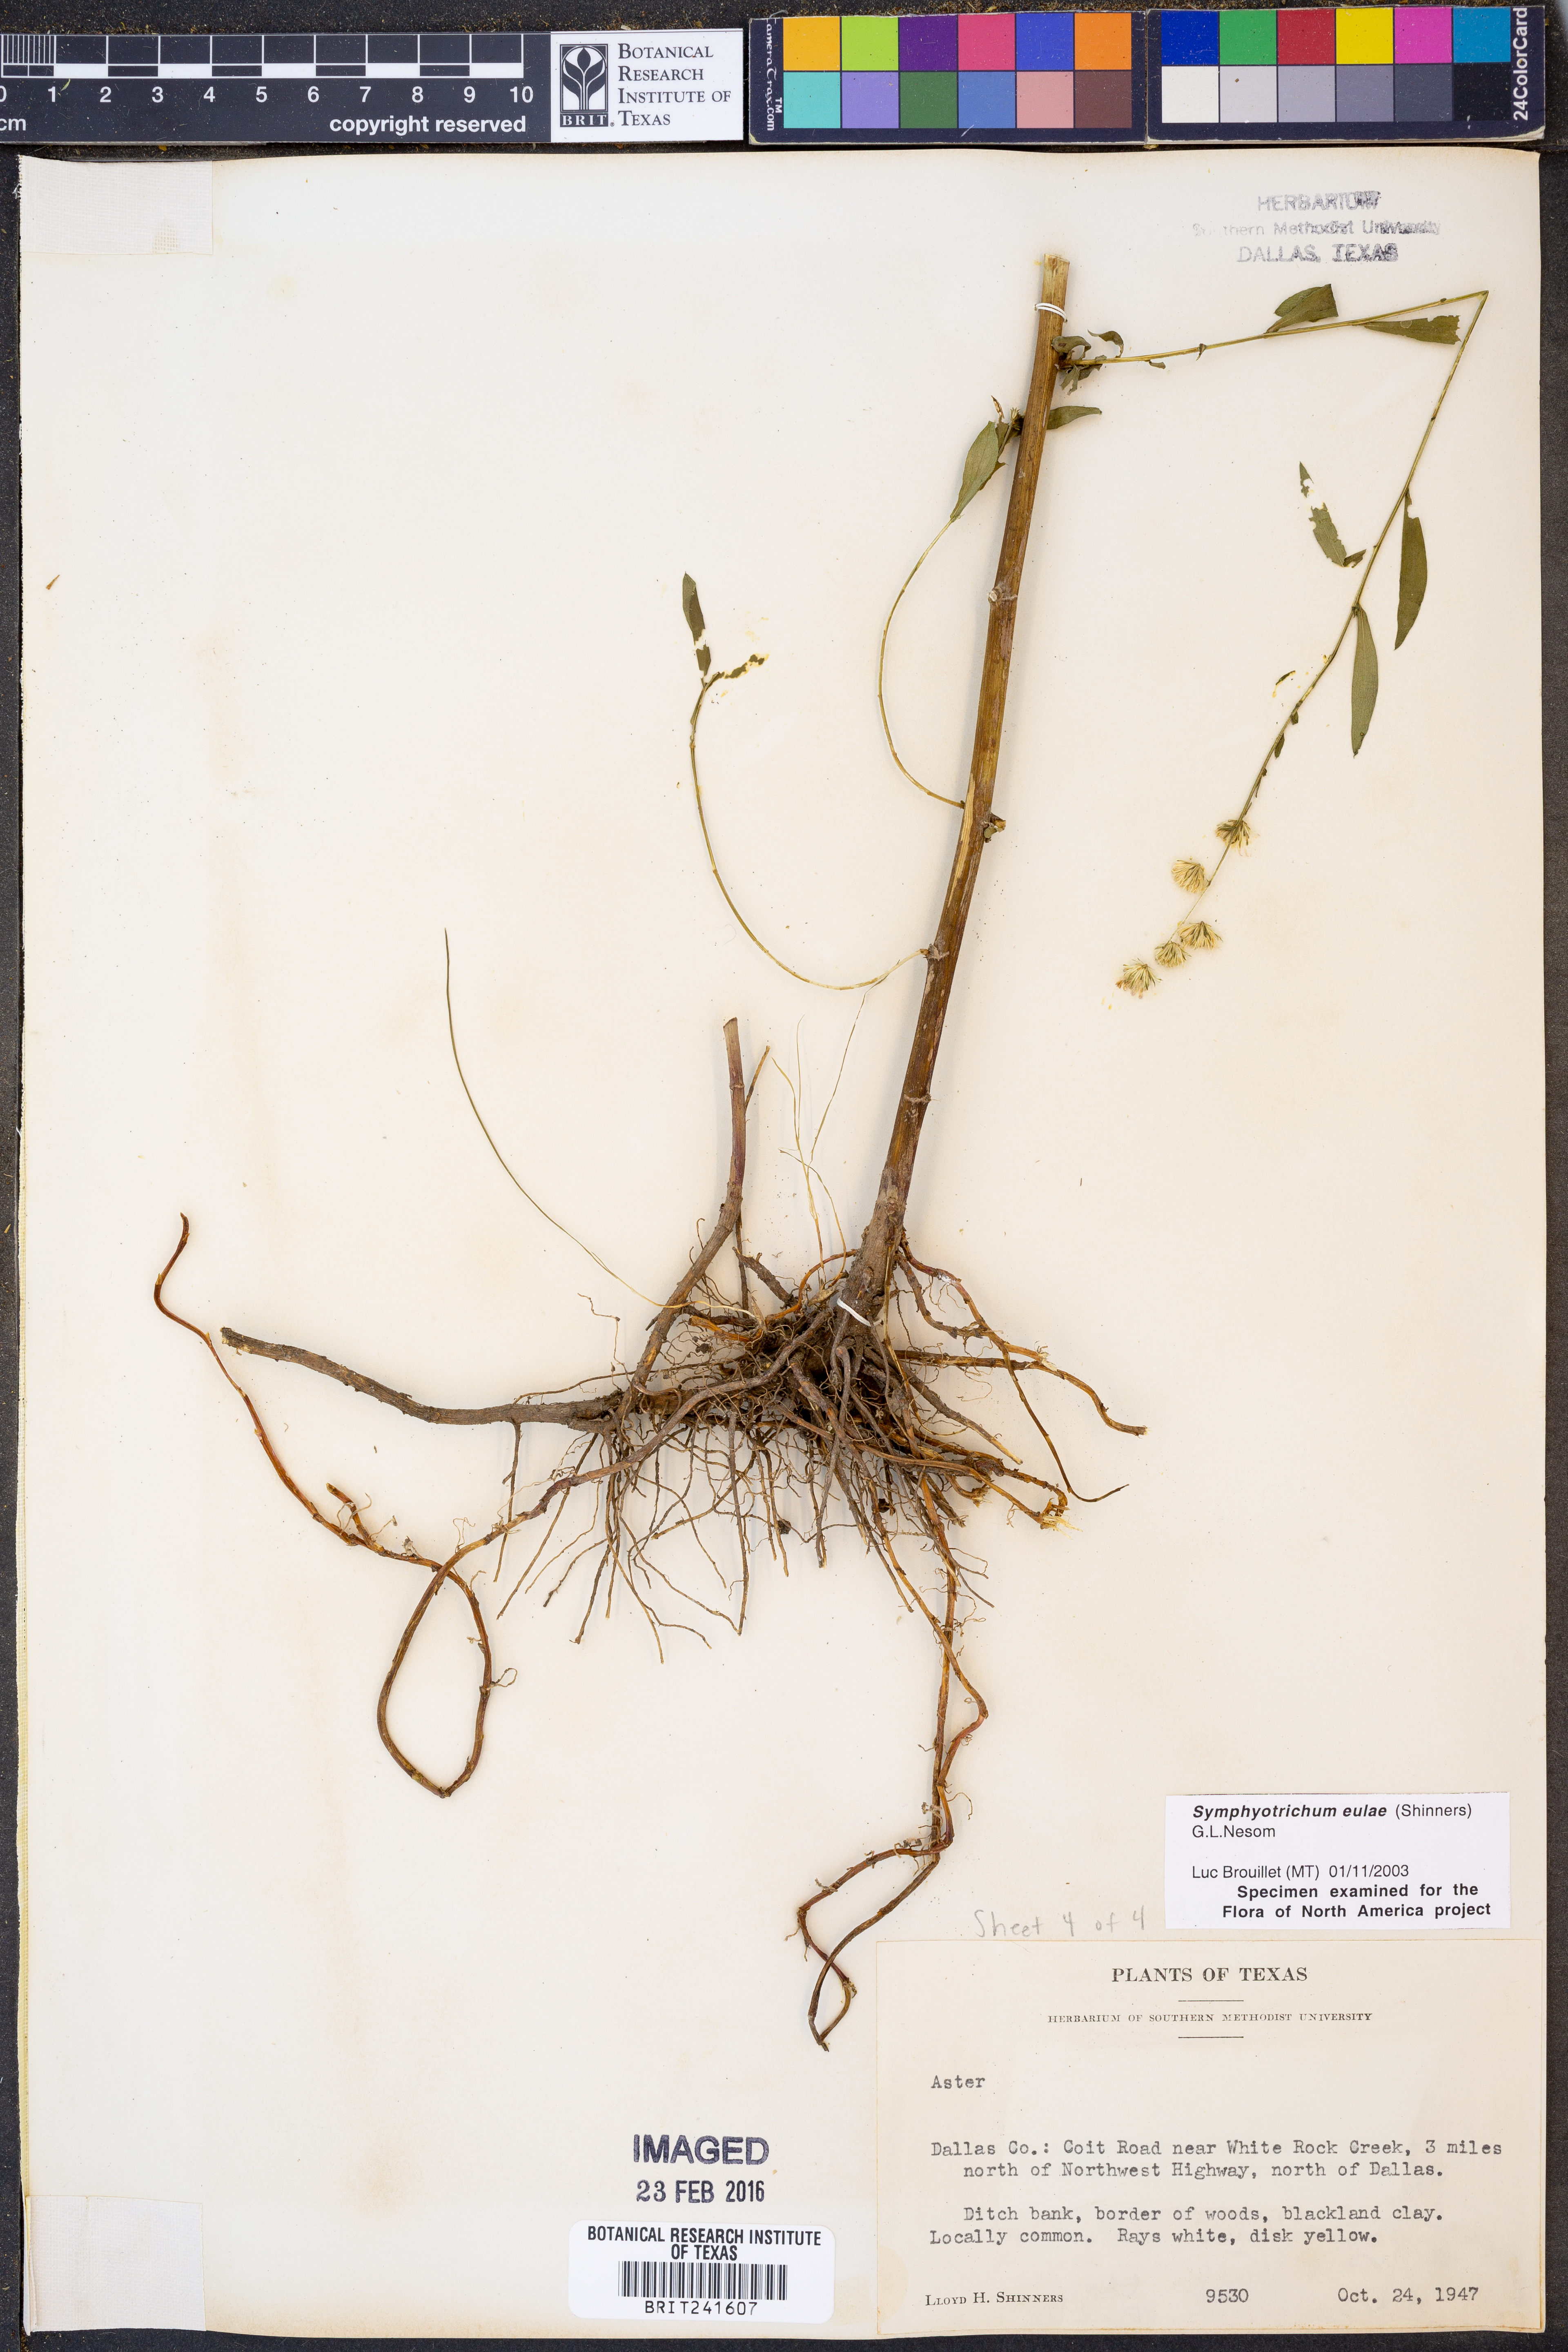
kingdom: Plantae
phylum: Tracheophyta
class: Magnoliopsida
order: Asterales
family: Asteraceae
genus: Symphyotrichum
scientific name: Symphyotrichum eulae
